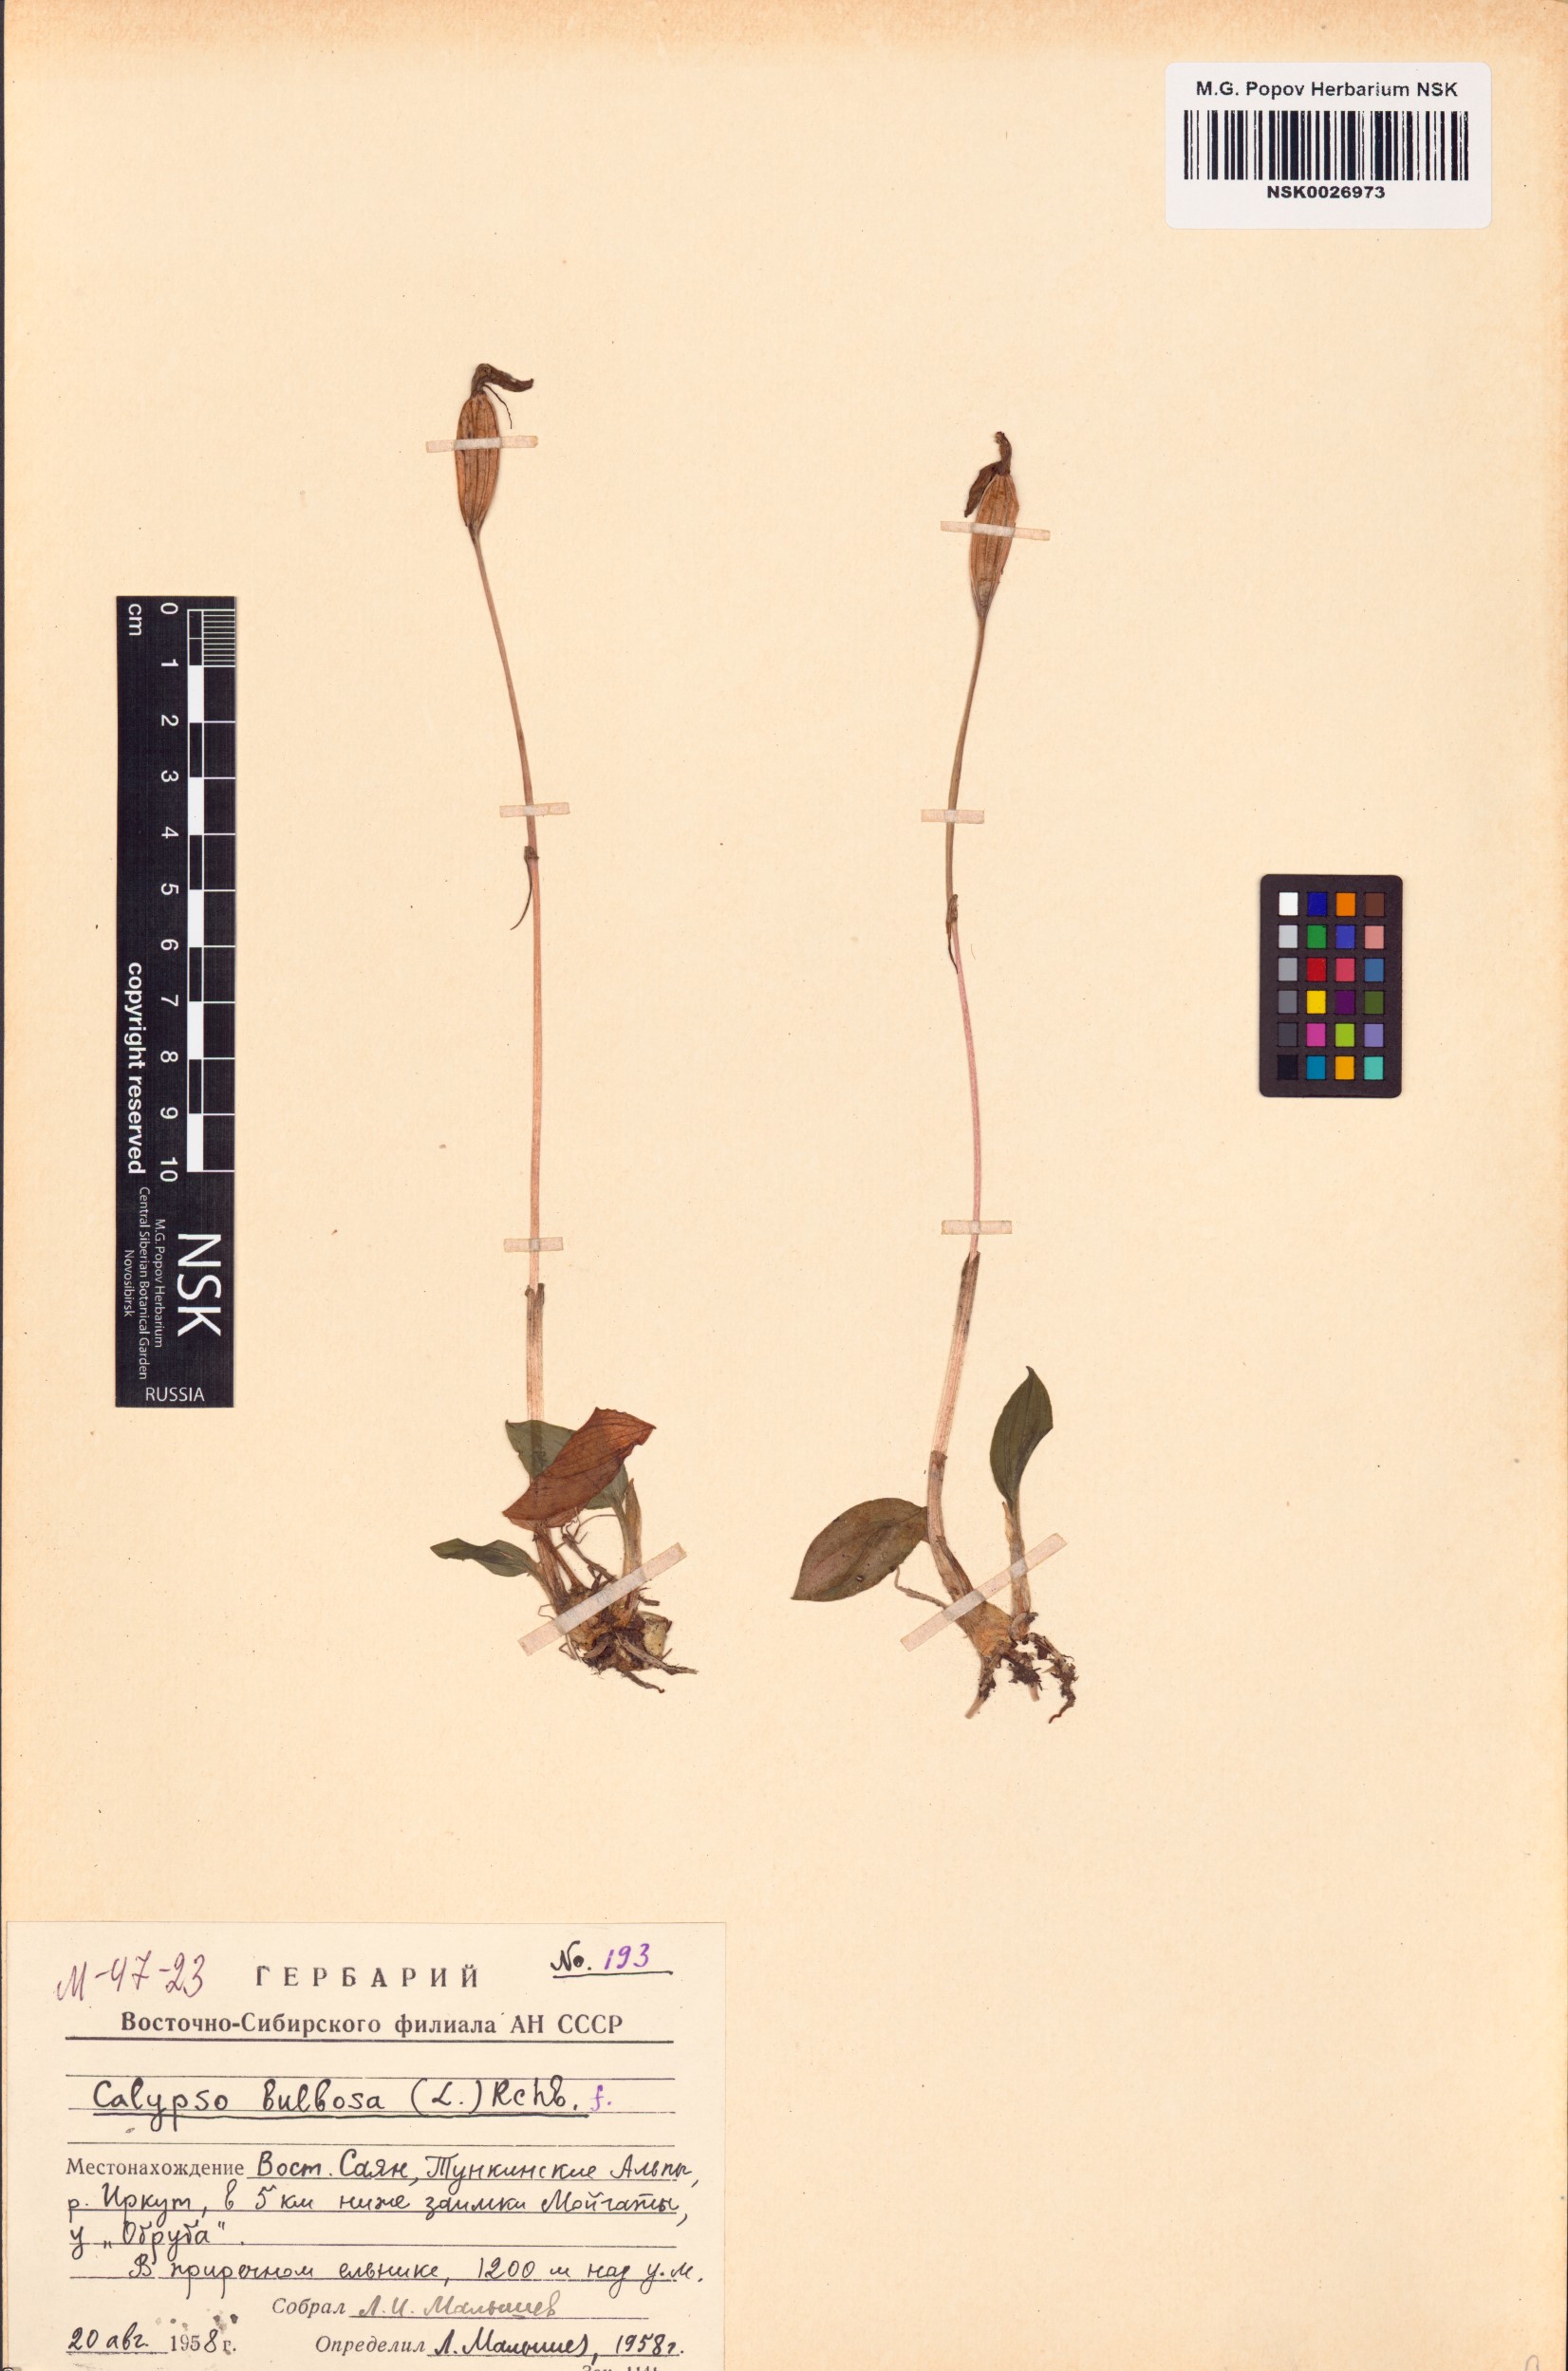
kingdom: Plantae
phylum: Tracheophyta
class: Liliopsida
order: Asparagales
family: Orchidaceae
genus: Calypso
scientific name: Calypso bulbosa
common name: Calypso
